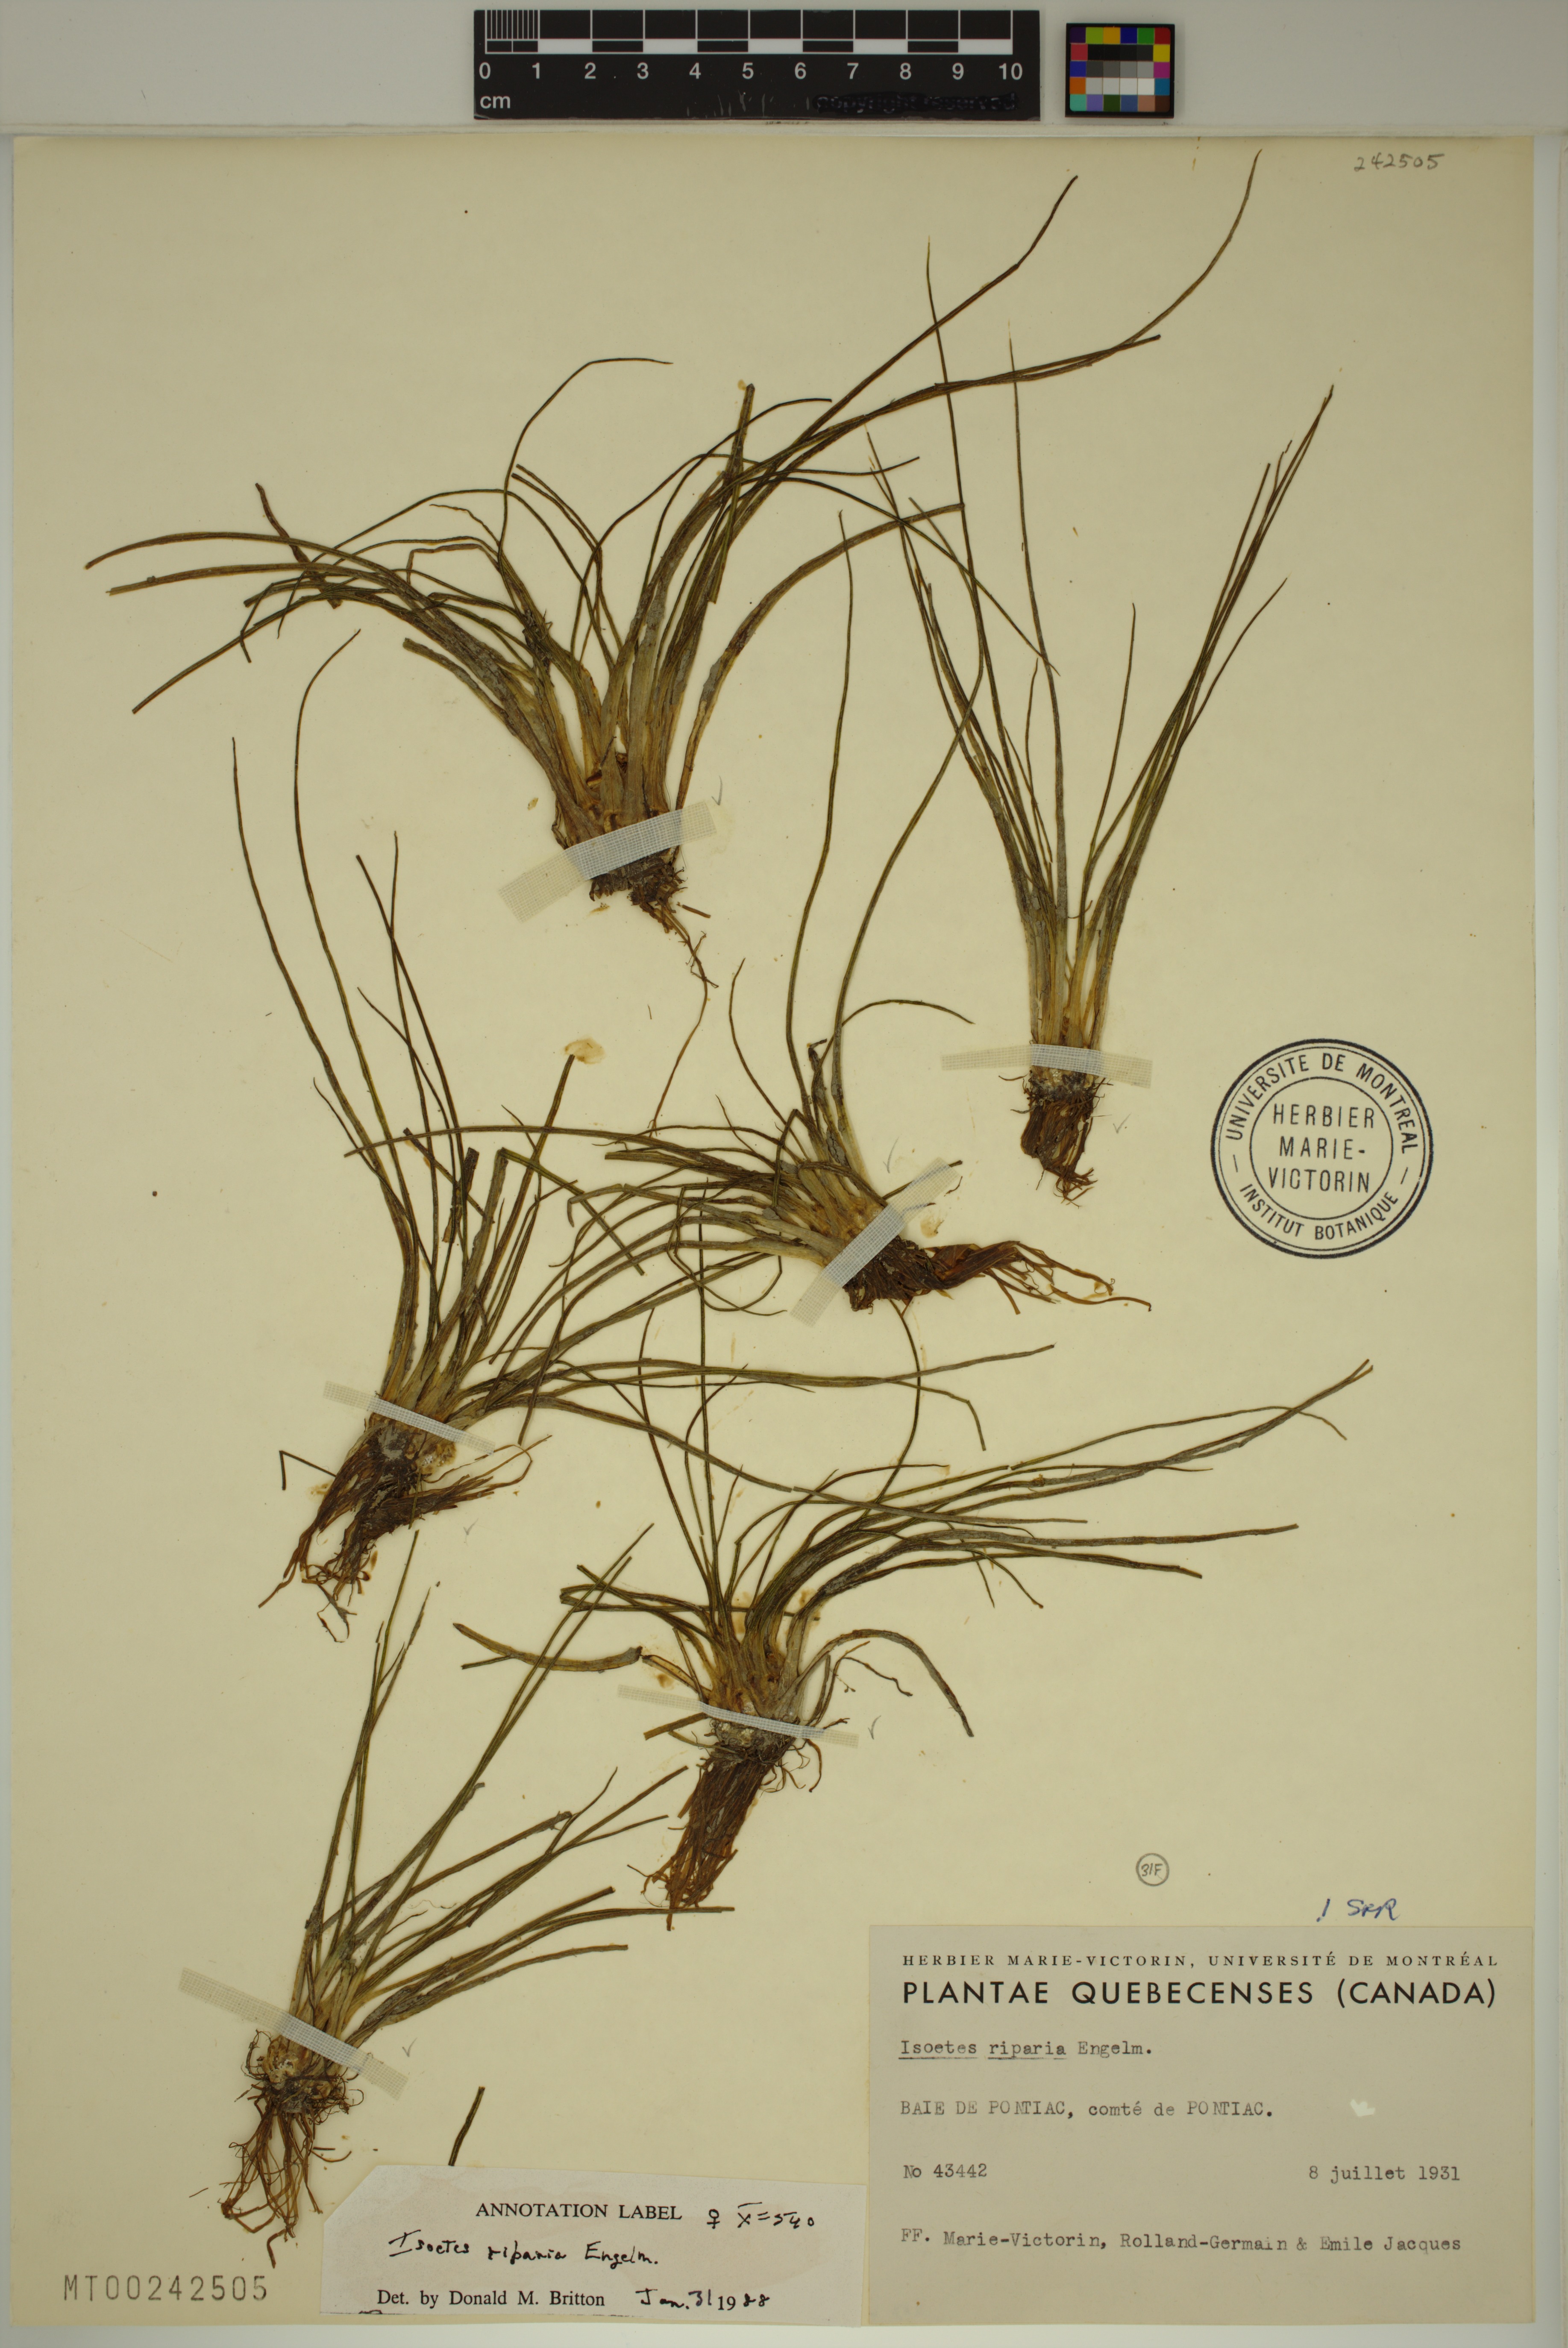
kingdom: Plantae
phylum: Tracheophyta
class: Lycopodiopsida
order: Isoetales
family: Isoetaceae
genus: Isoetes
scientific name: Isoetes septentrionalis
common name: Northern quillwort
